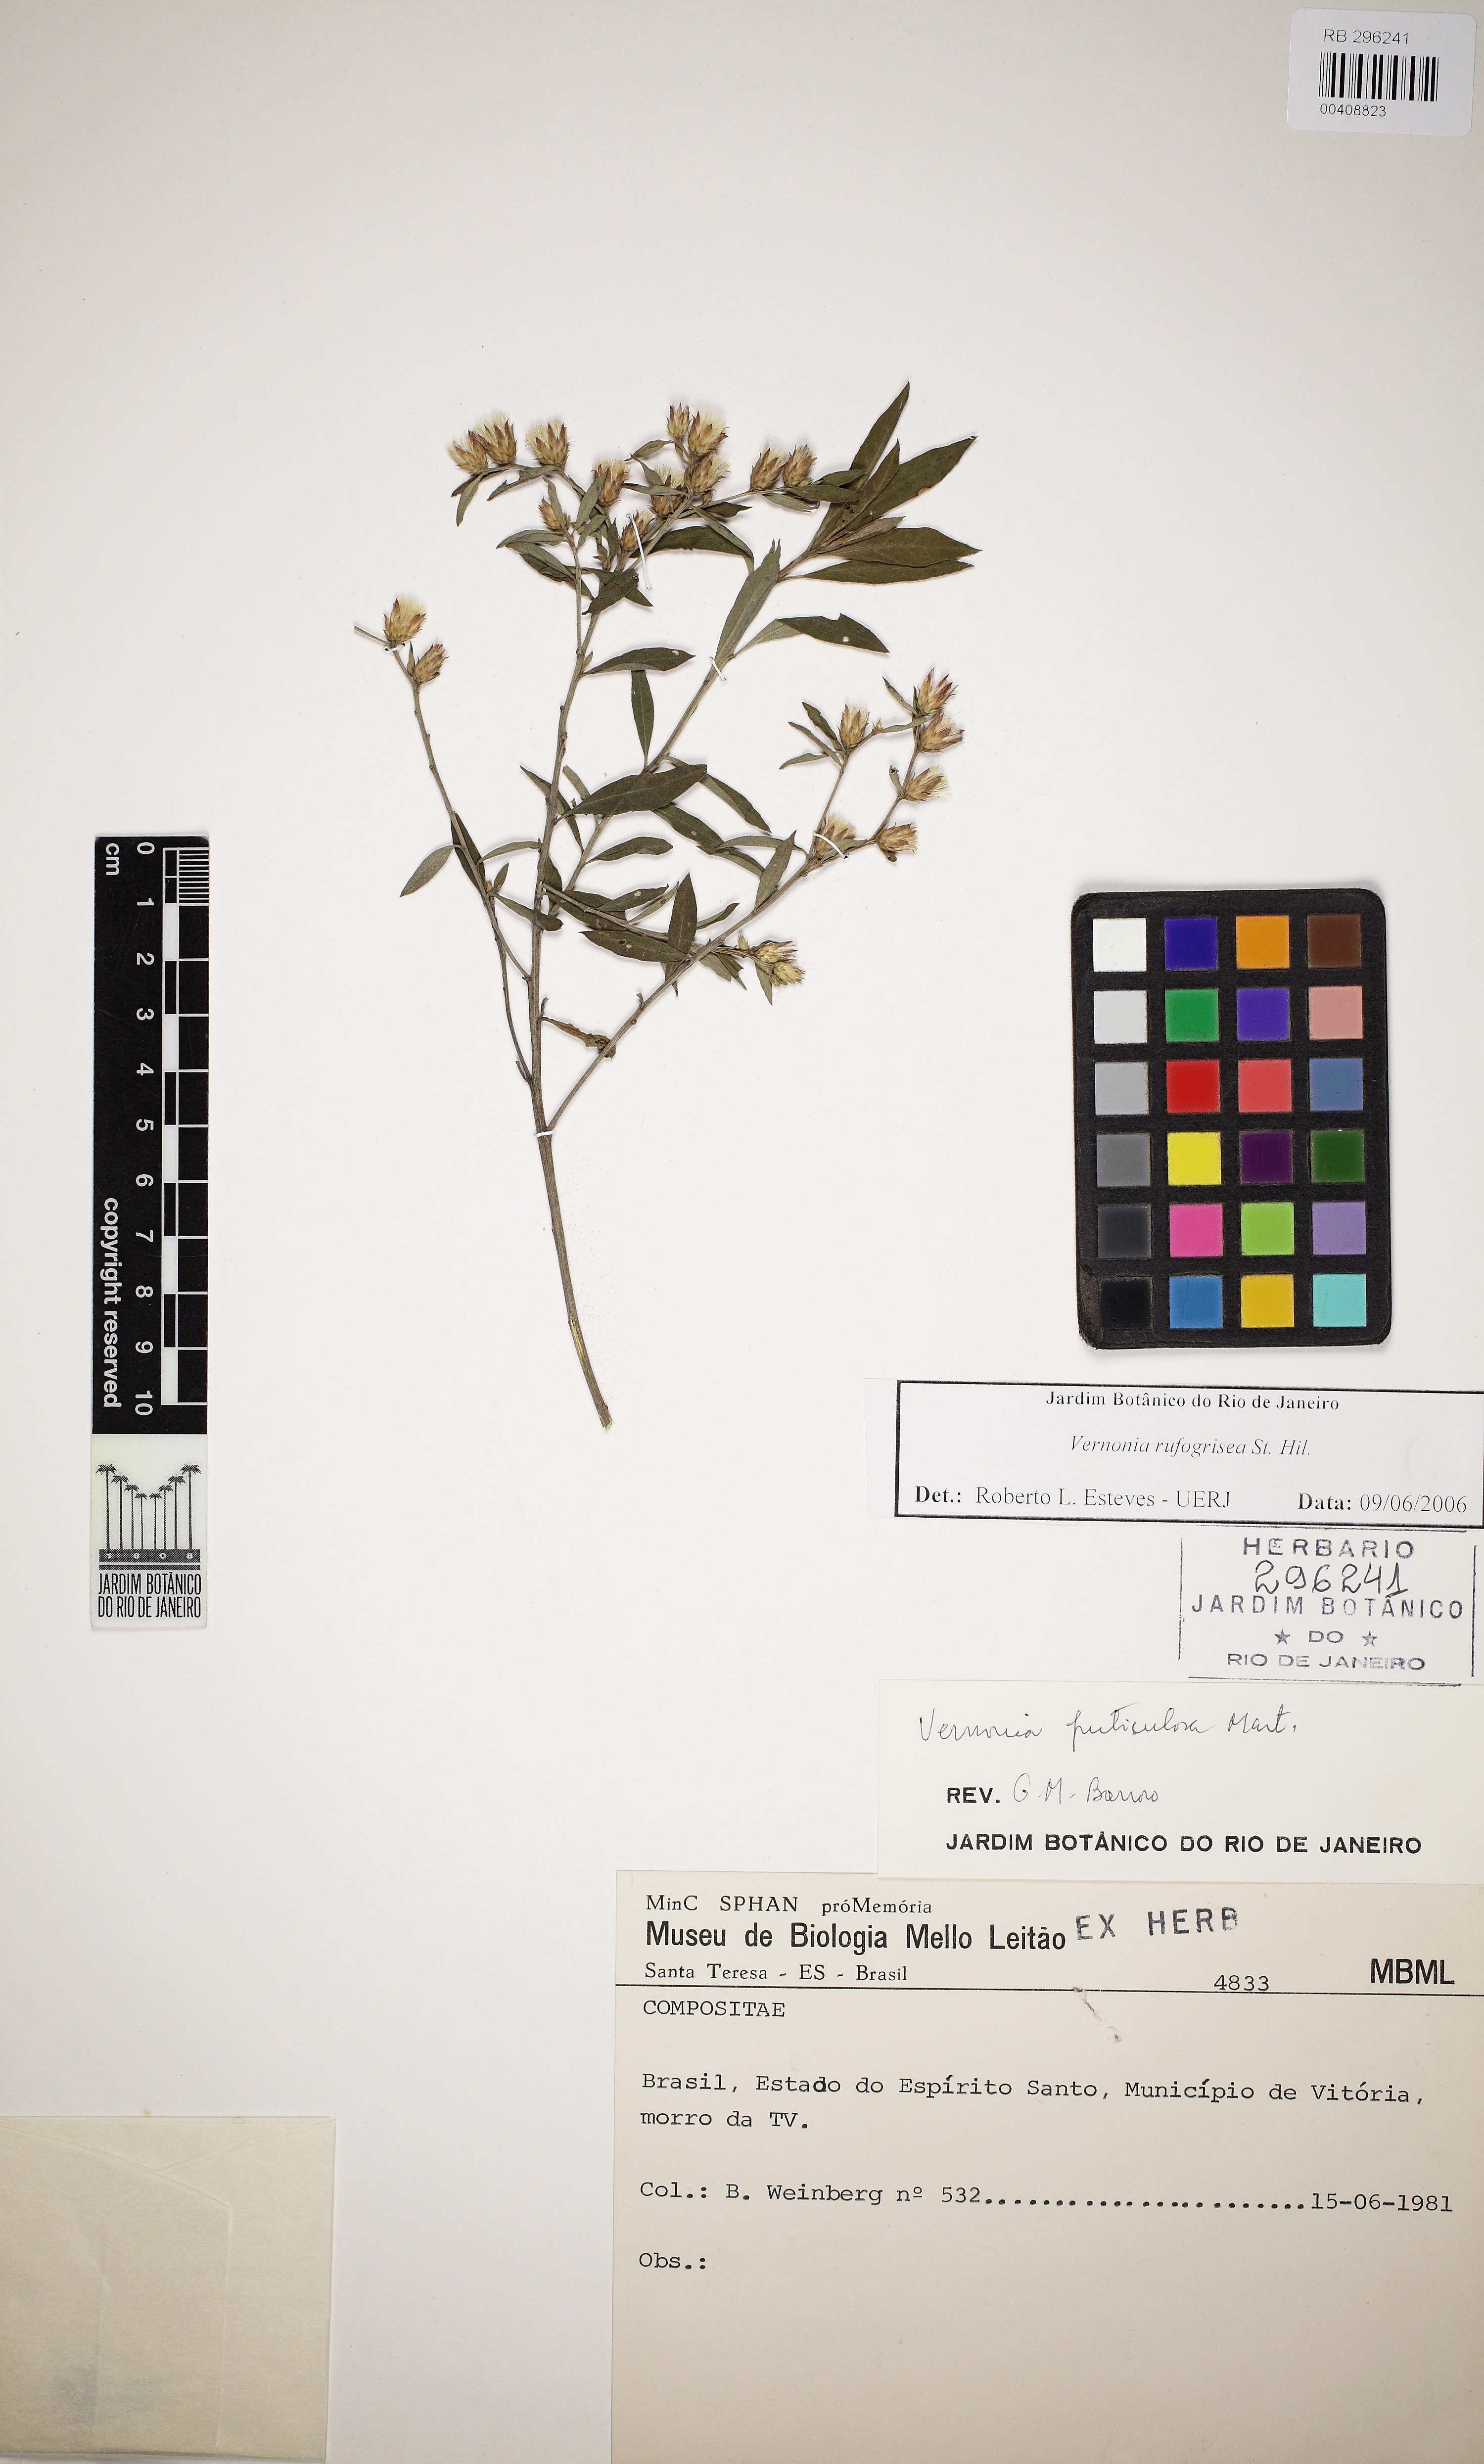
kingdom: Plantae
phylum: Tracheophyta
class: Magnoliopsida
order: Asterales
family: Asteraceae
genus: Lepidaploa
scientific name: Lepidaploa rufogrisea
